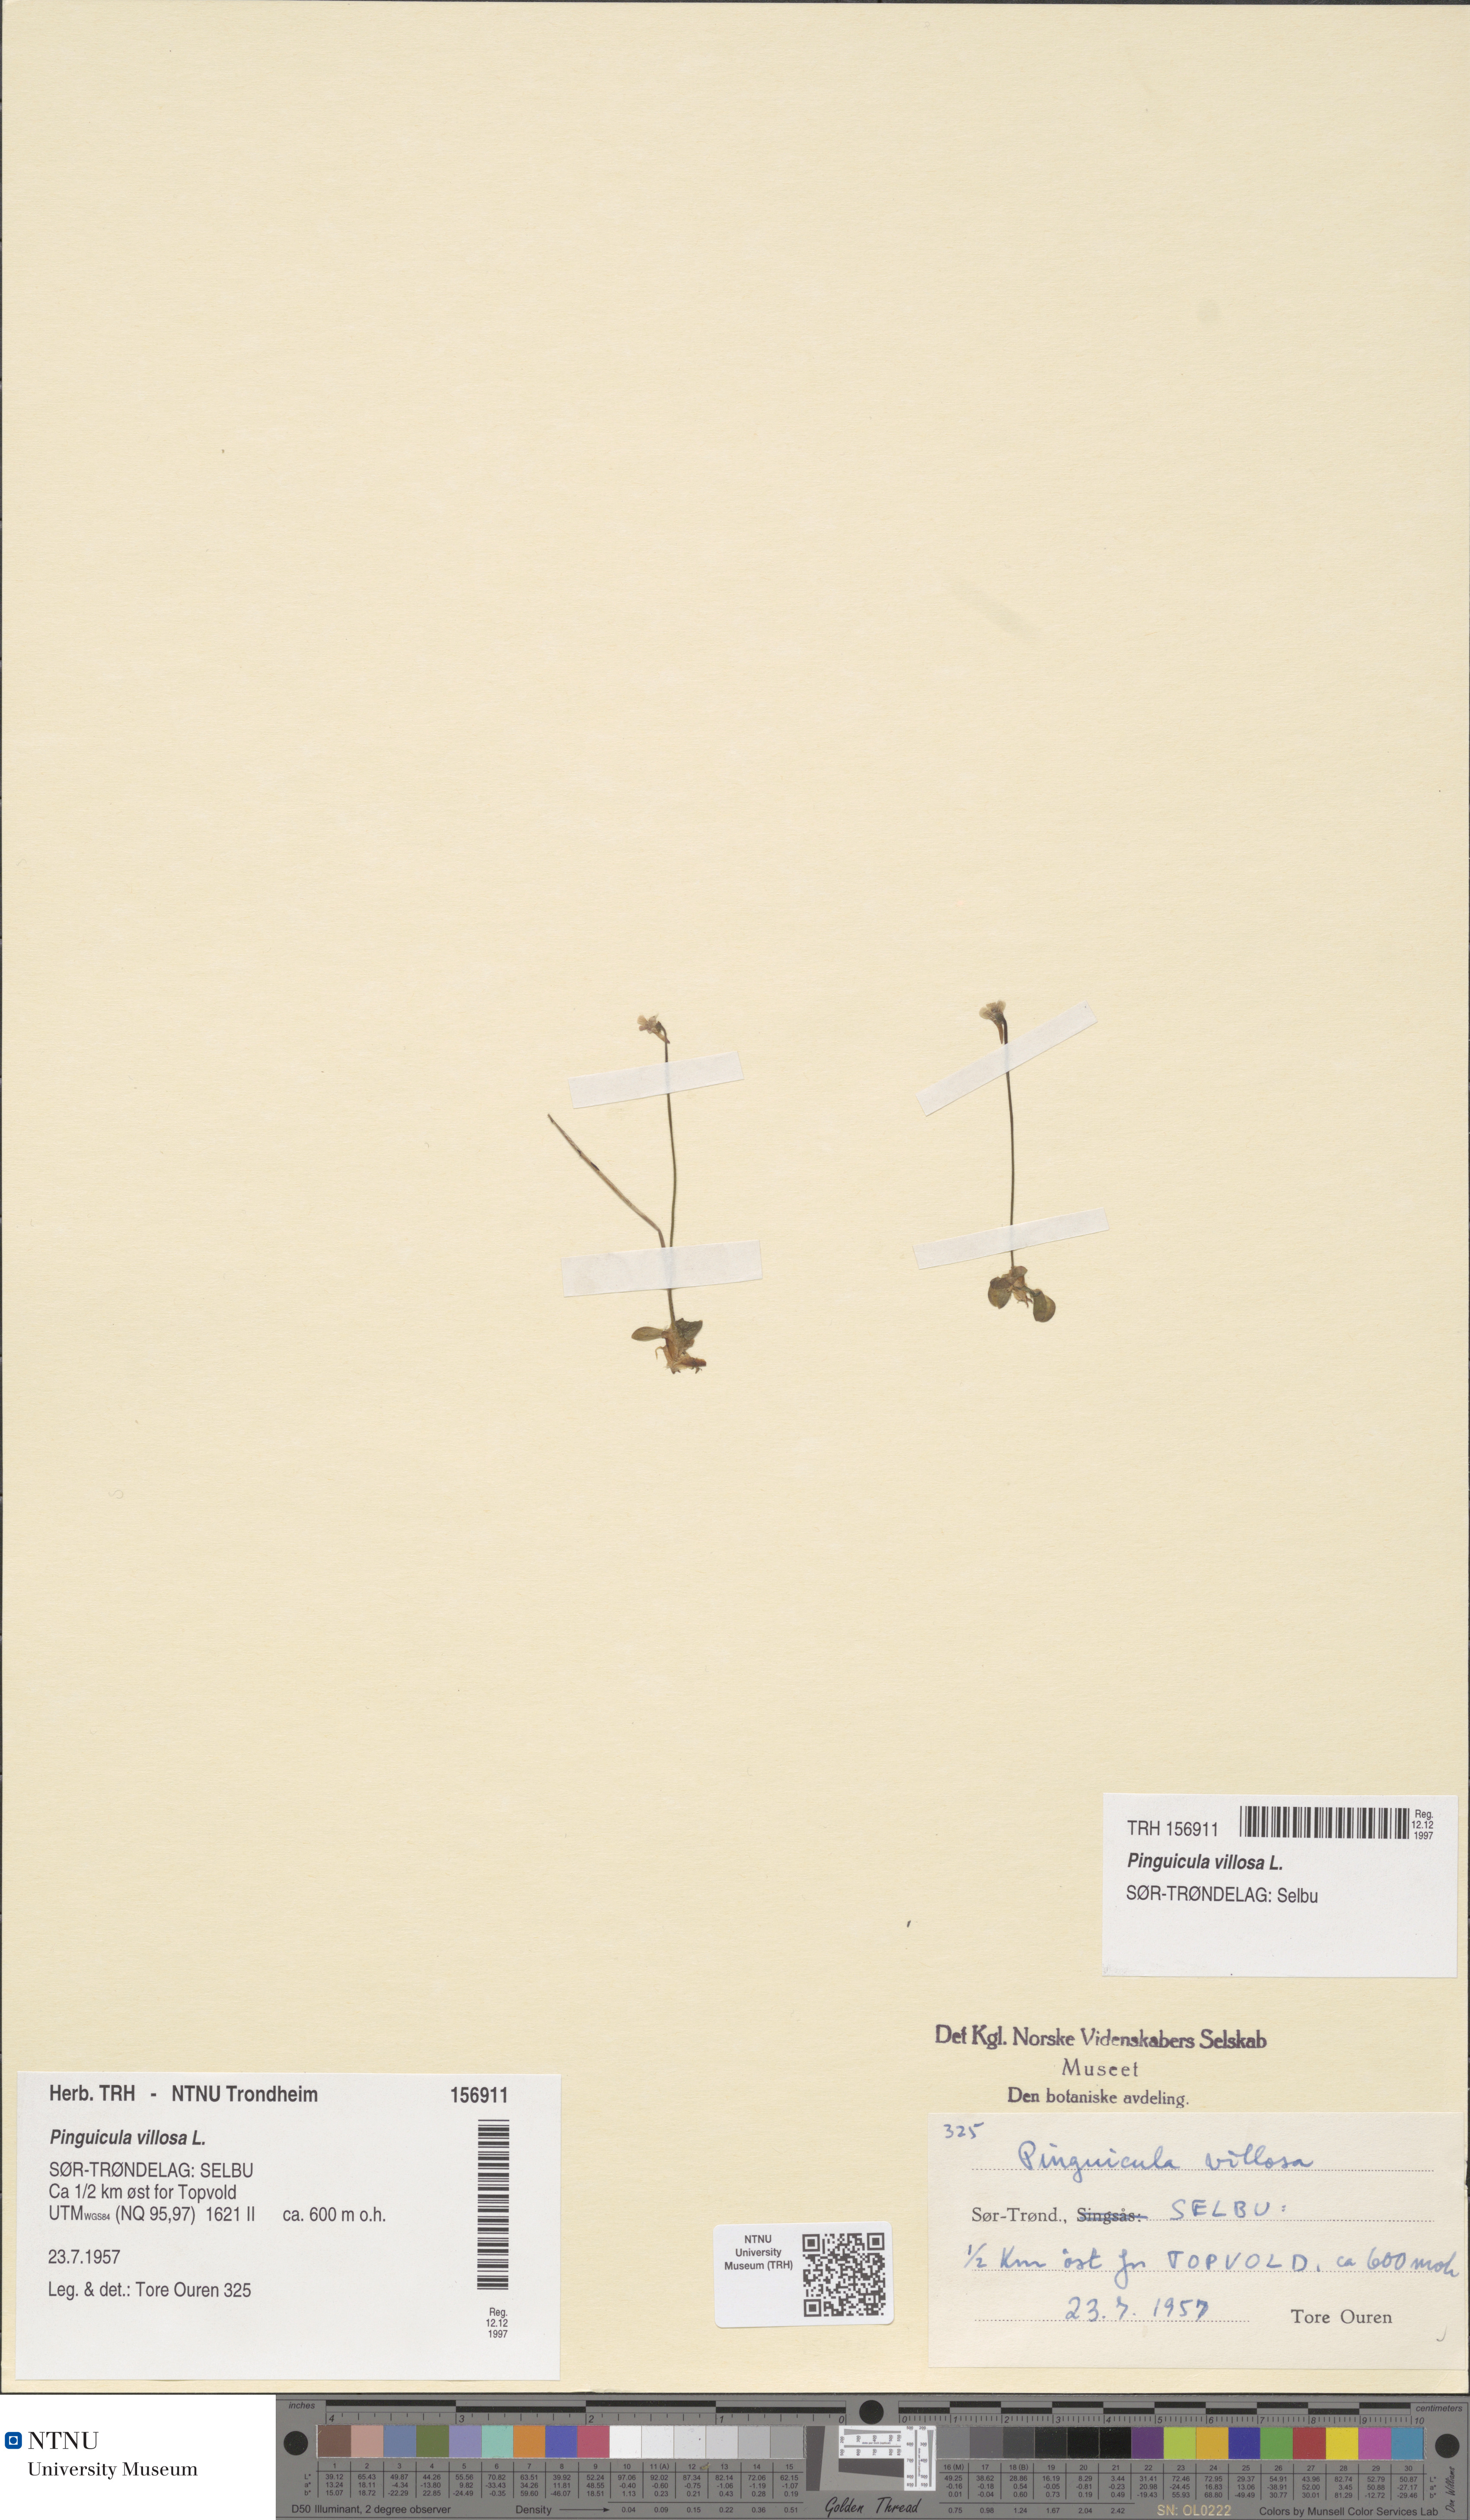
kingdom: Plantae
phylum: Tracheophyta
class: Magnoliopsida
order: Lamiales
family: Lentibulariaceae
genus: Pinguicula
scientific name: Pinguicula villosa
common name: Hairy butterwort
